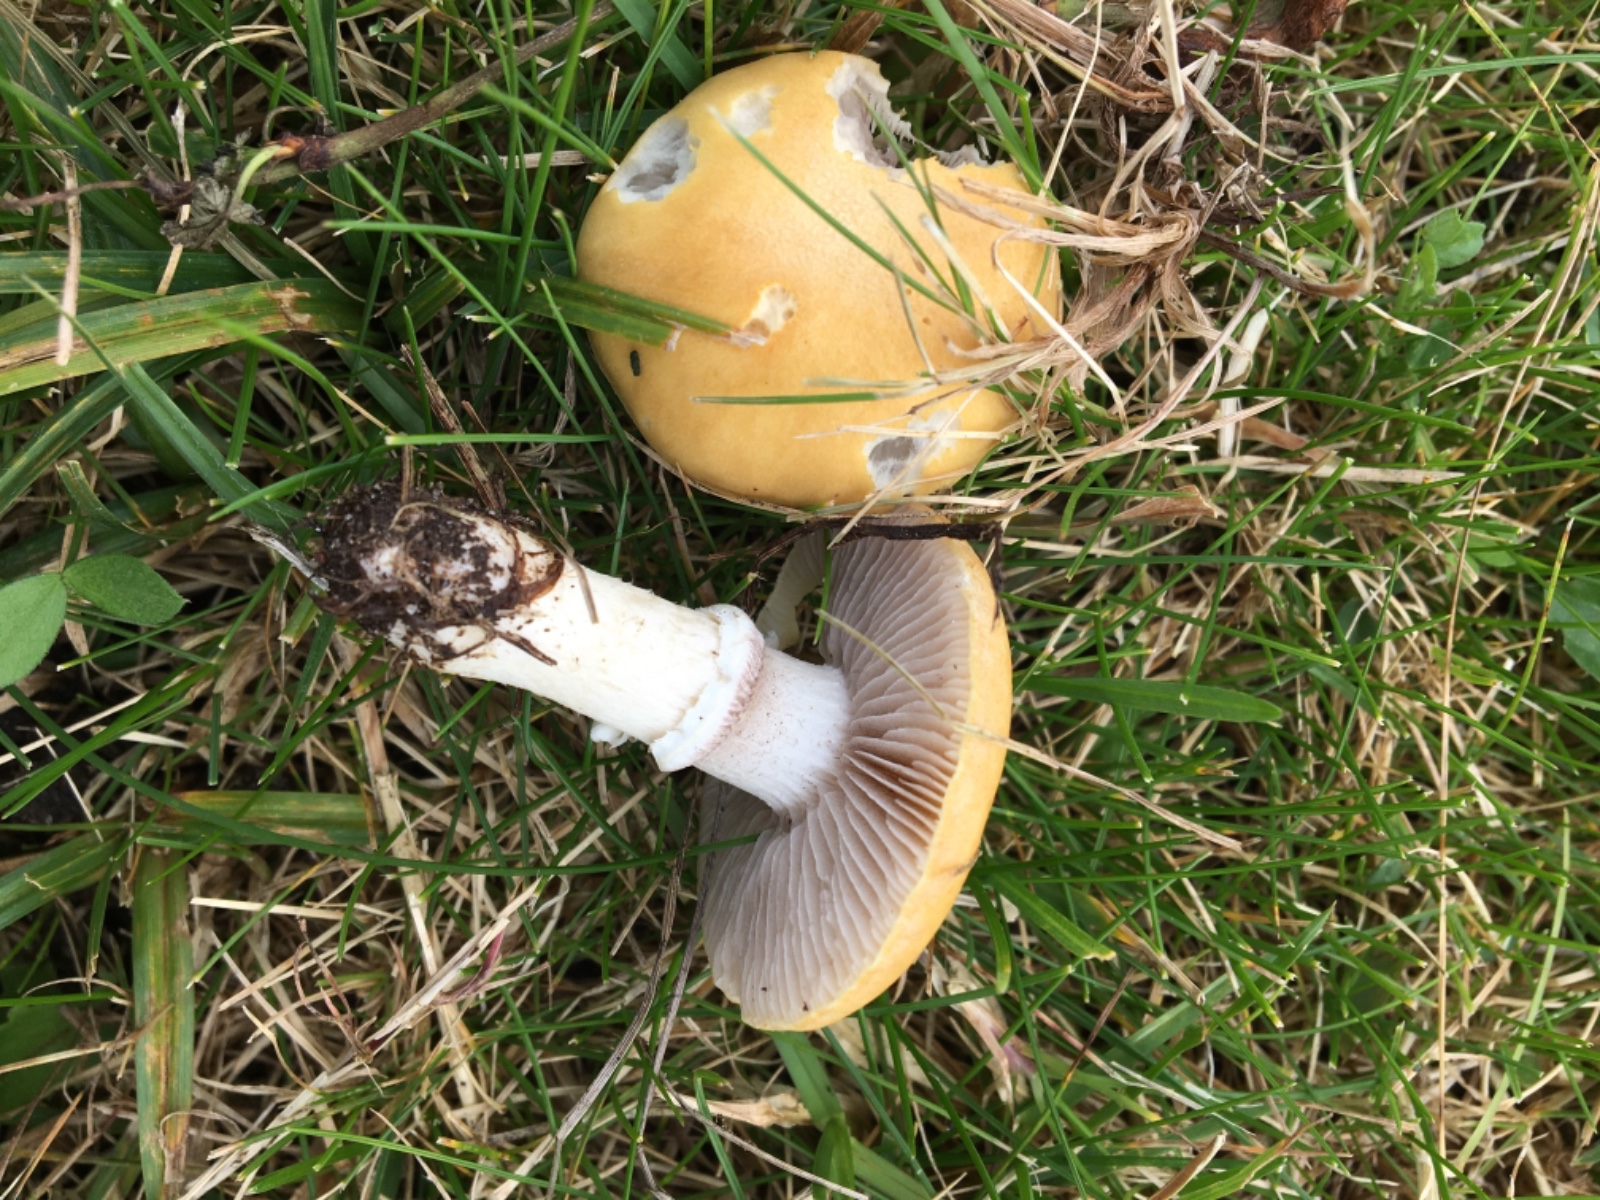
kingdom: Fungi
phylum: Basidiomycota
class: Agaricomycetes
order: Agaricales
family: Hymenogastraceae
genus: Psilocybe
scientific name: Psilocybe coronilla
